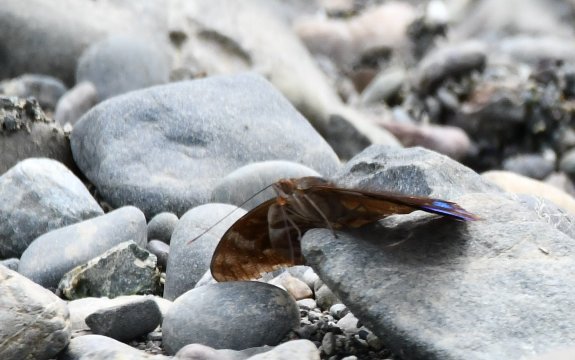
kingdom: Animalia
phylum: Arthropoda
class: Insecta
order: Lepidoptera
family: Nymphalidae
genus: Eunica
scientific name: Eunica
